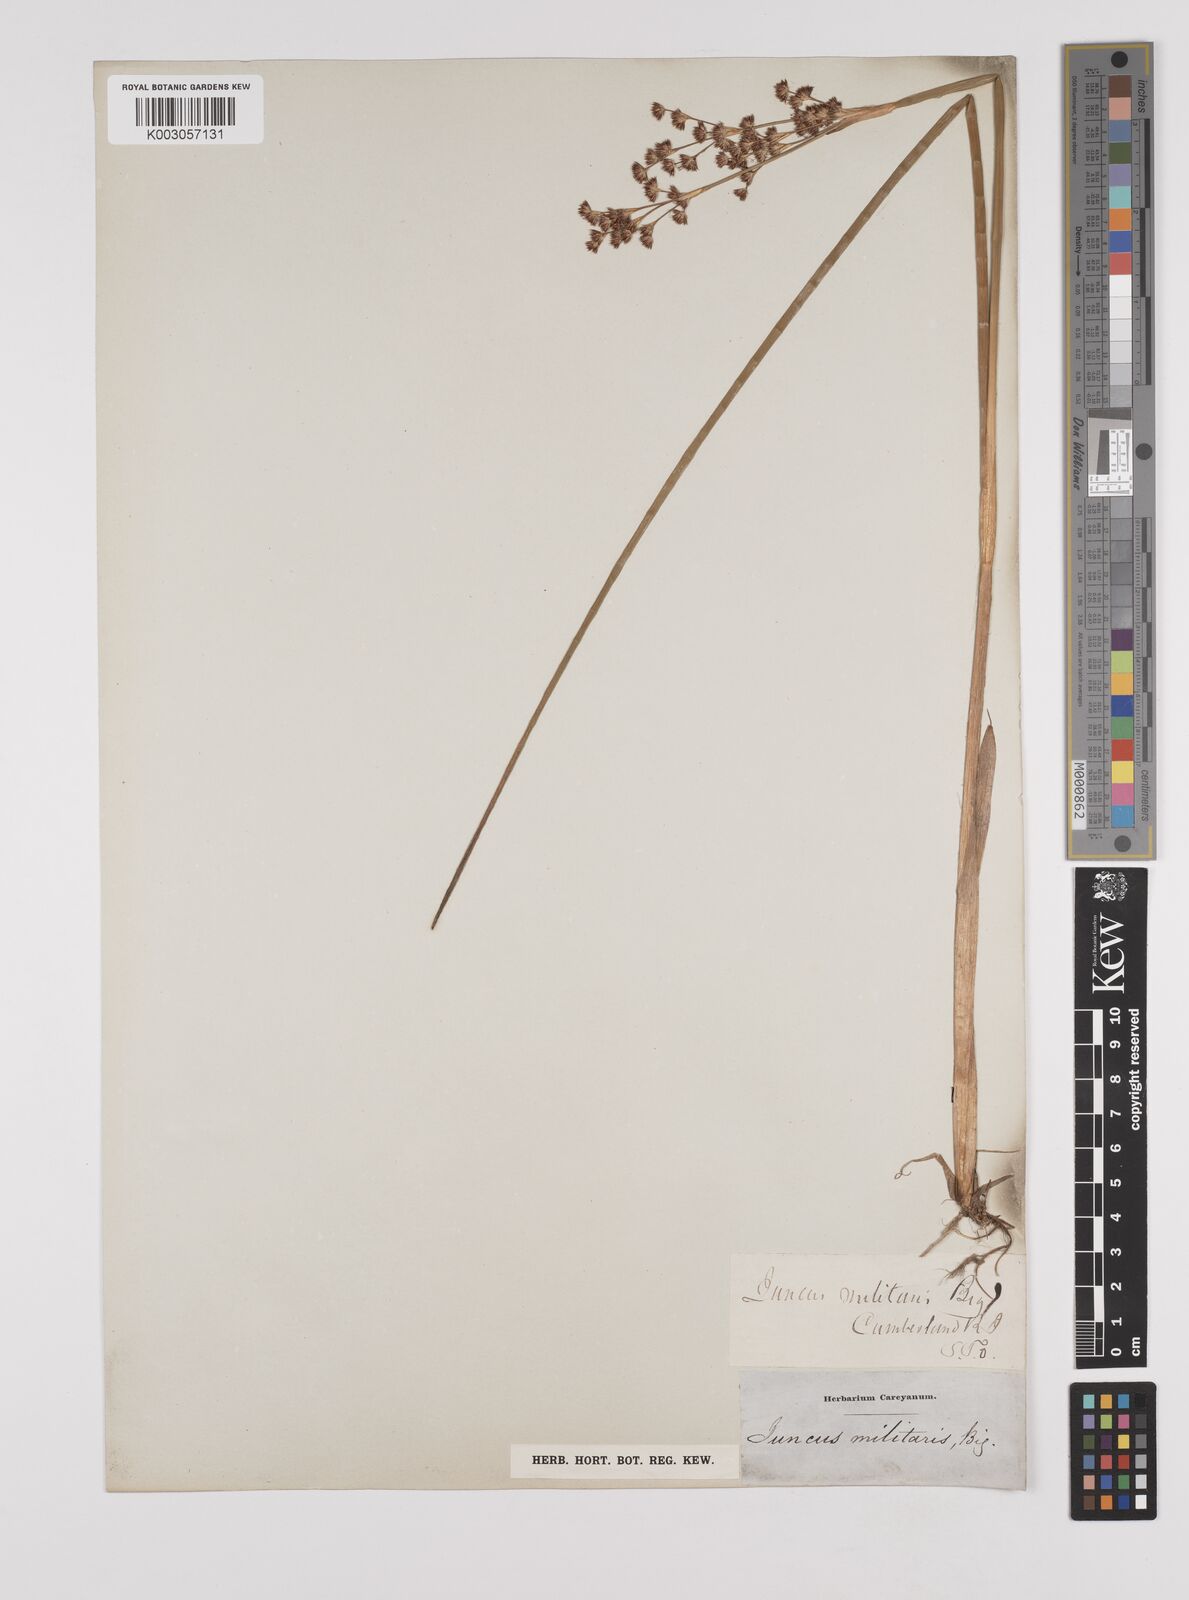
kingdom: Plantae
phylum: Tracheophyta
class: Liliopsida
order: Poales
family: Juncaceae
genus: Juncus
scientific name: Juncus militaris
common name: Bayonet rush
